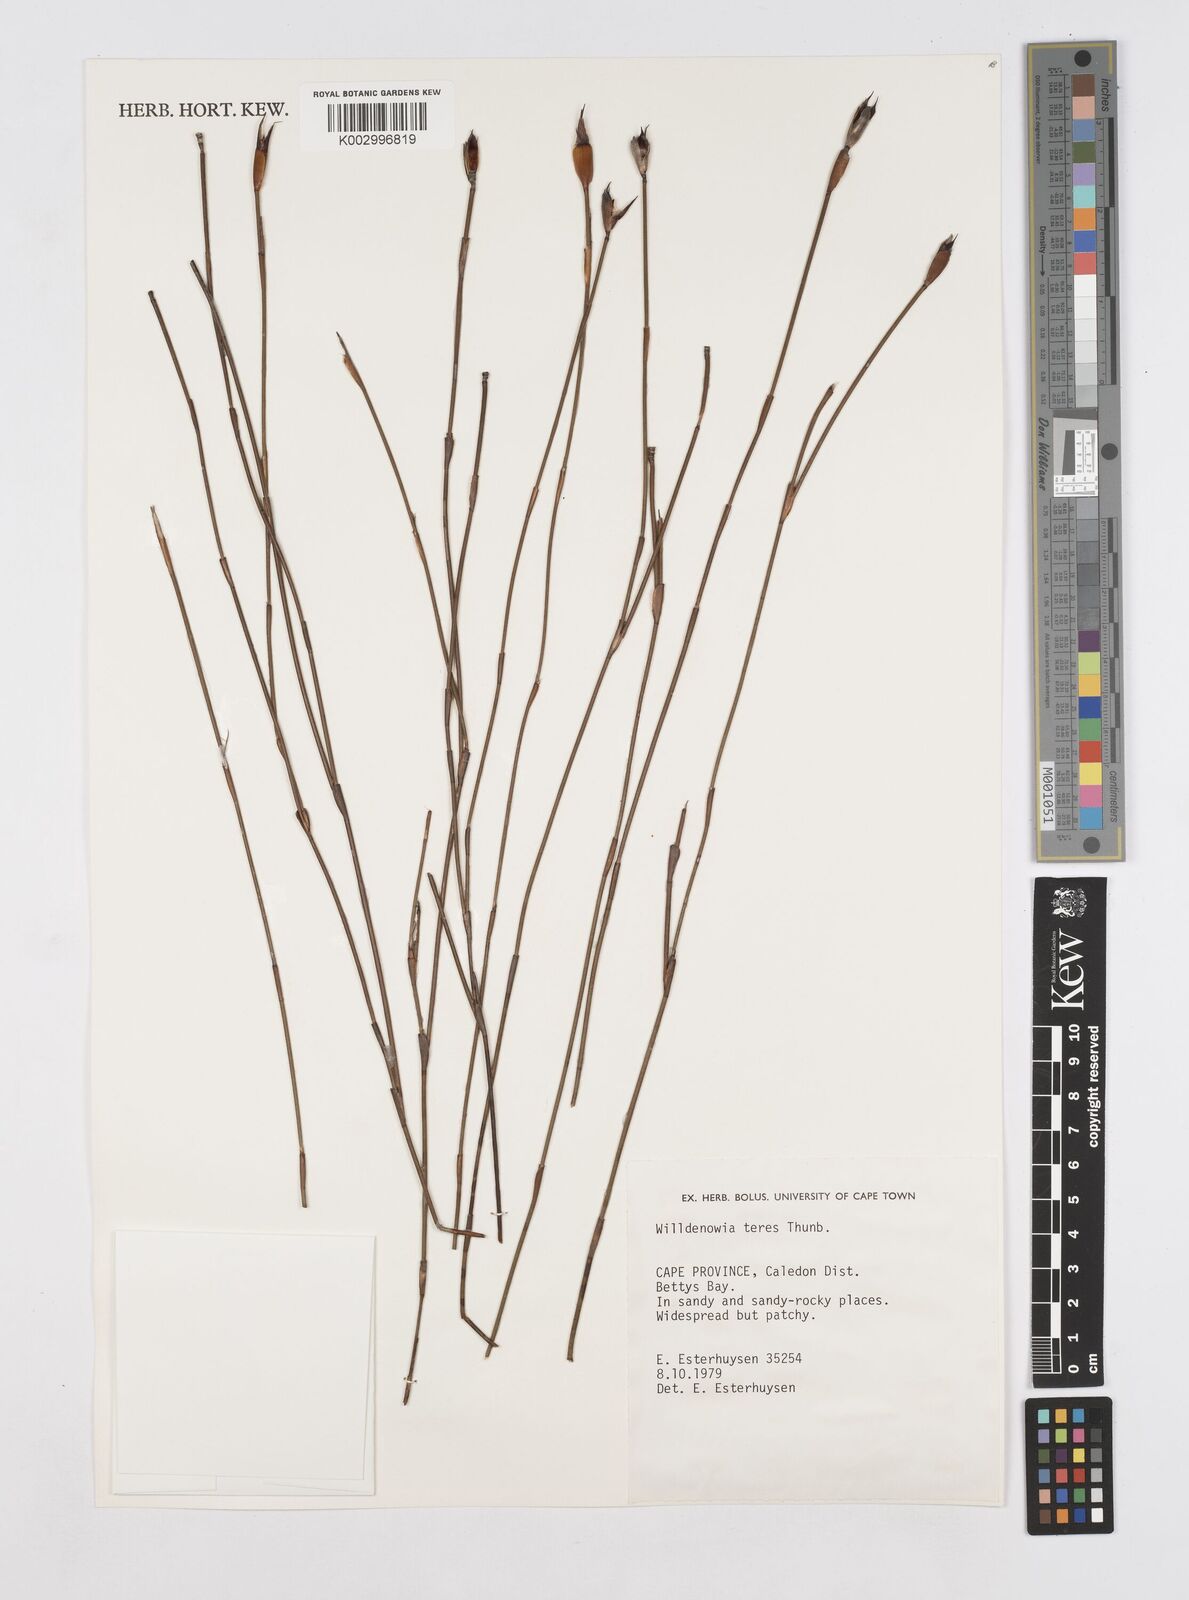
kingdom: Plantae
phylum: Tracheophyta
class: Liliopsida
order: Poales
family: Restionaceae
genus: Willdenowia
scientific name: Willdenowia teres
